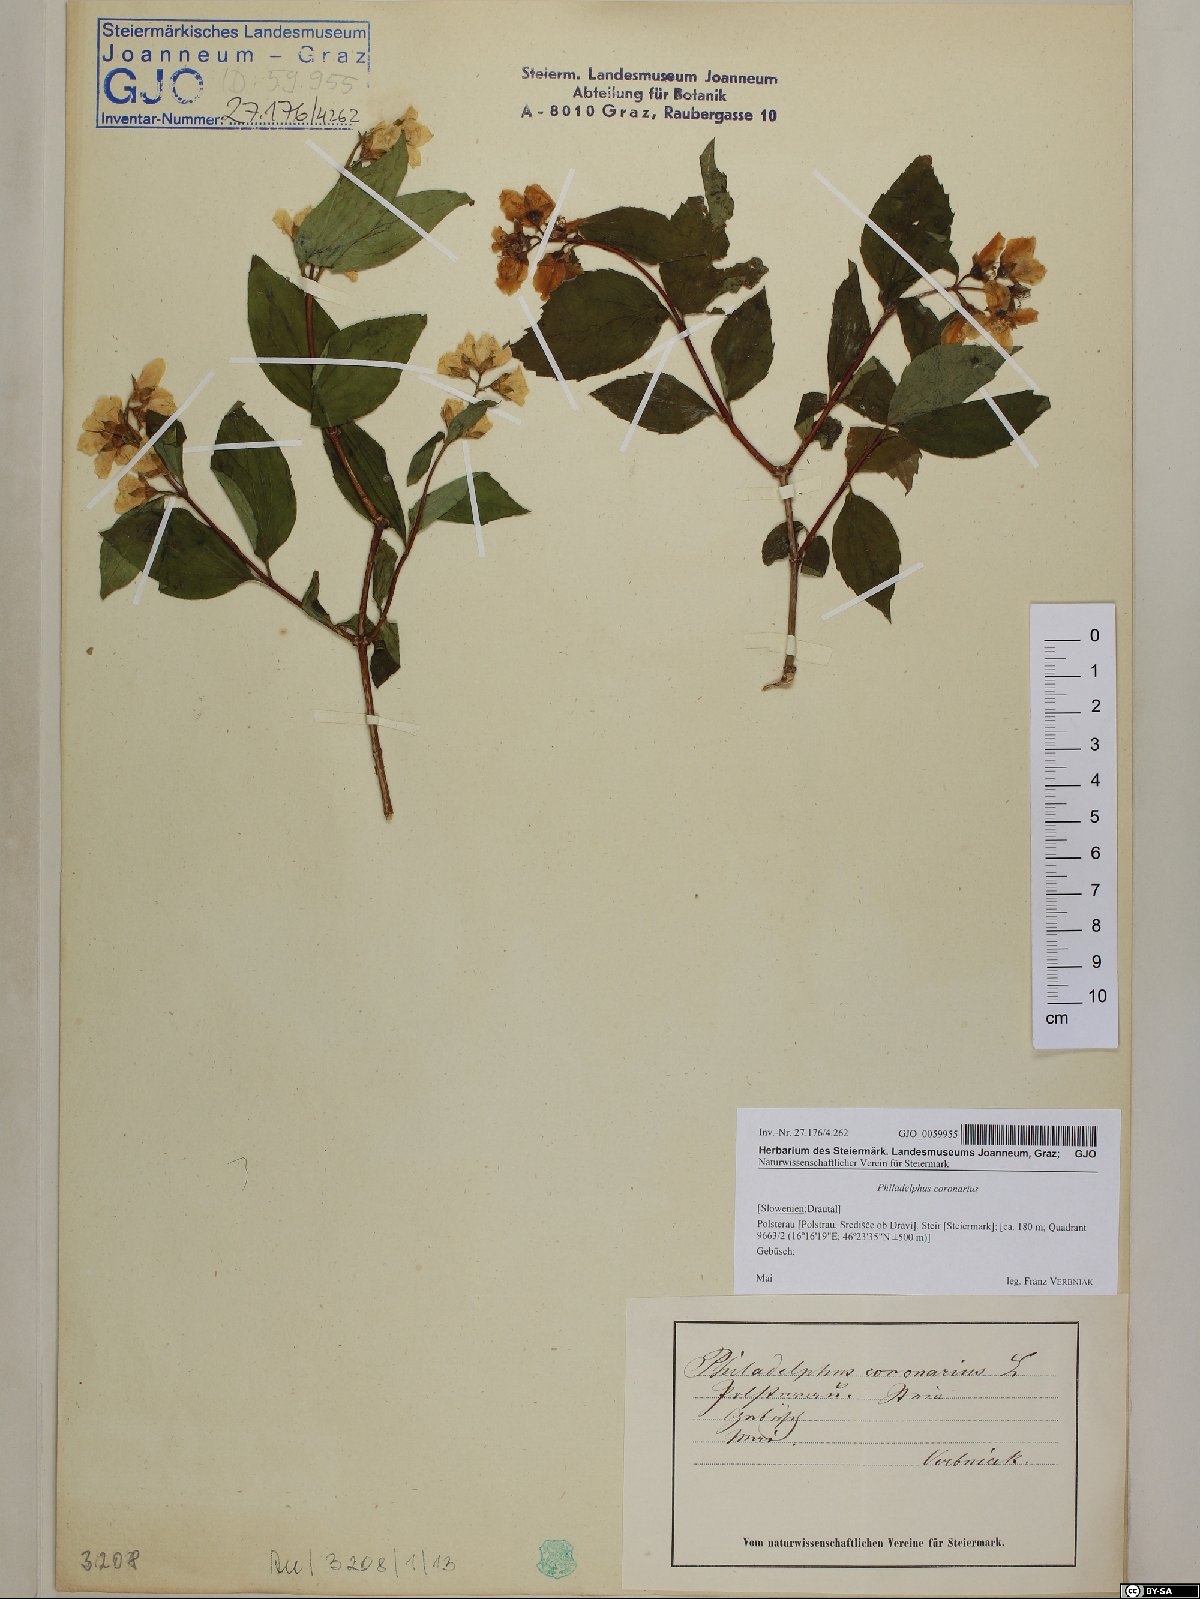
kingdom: Plantae
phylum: Tracheophyta
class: Magnoliopsida
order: Cornales
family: Hydrangeaceae
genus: Philadelphus
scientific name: Philadelphus coronarius
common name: Mock orange
